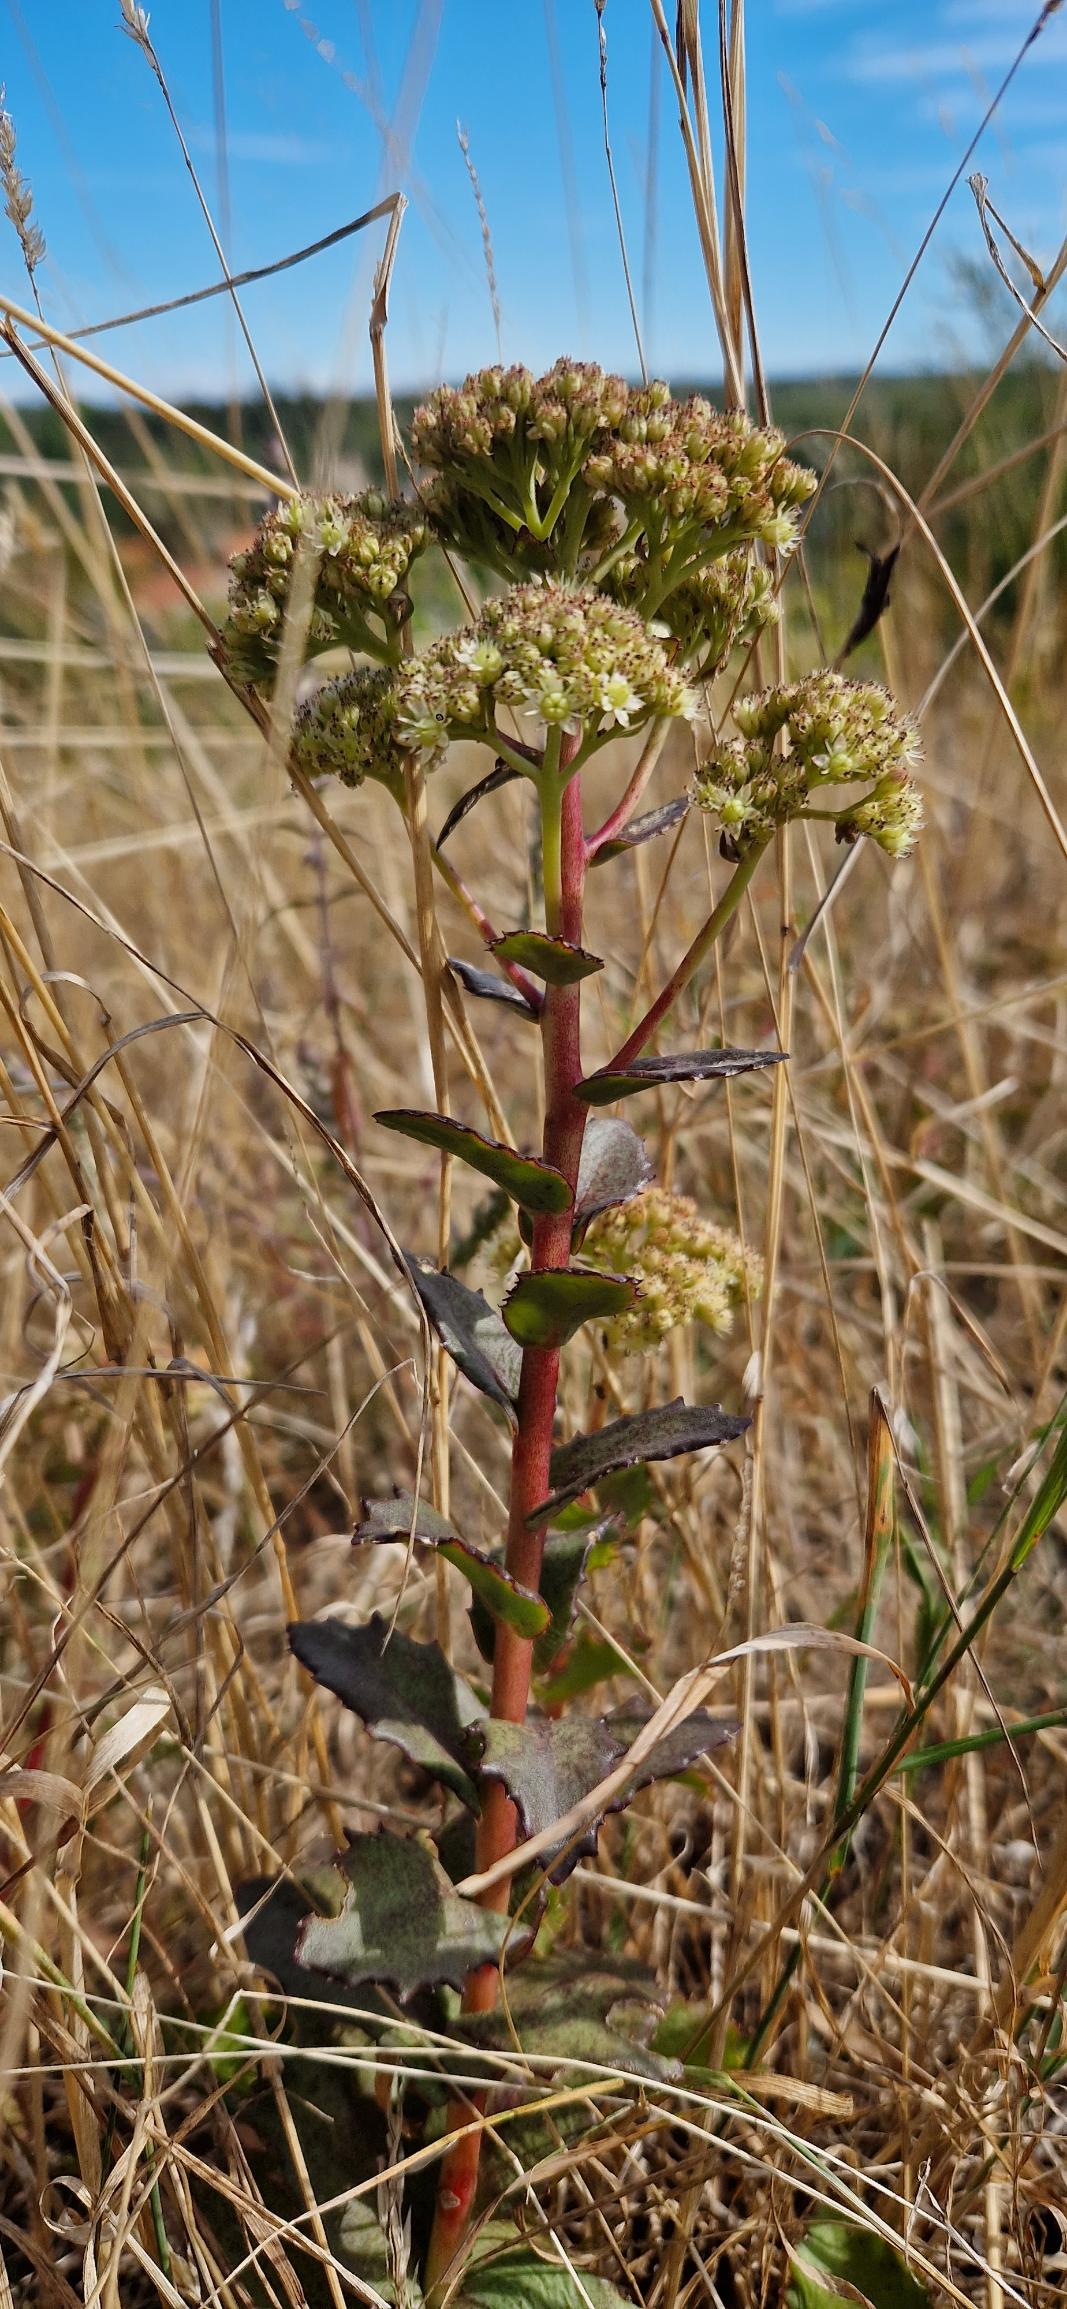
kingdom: Plantae
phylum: Tracheophyta
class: Magnoliopsida
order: Saxifragales
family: Crassulaceae
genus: Hylotelephium
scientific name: Hylotelephium maximum
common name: Almindelig sankthansurt
